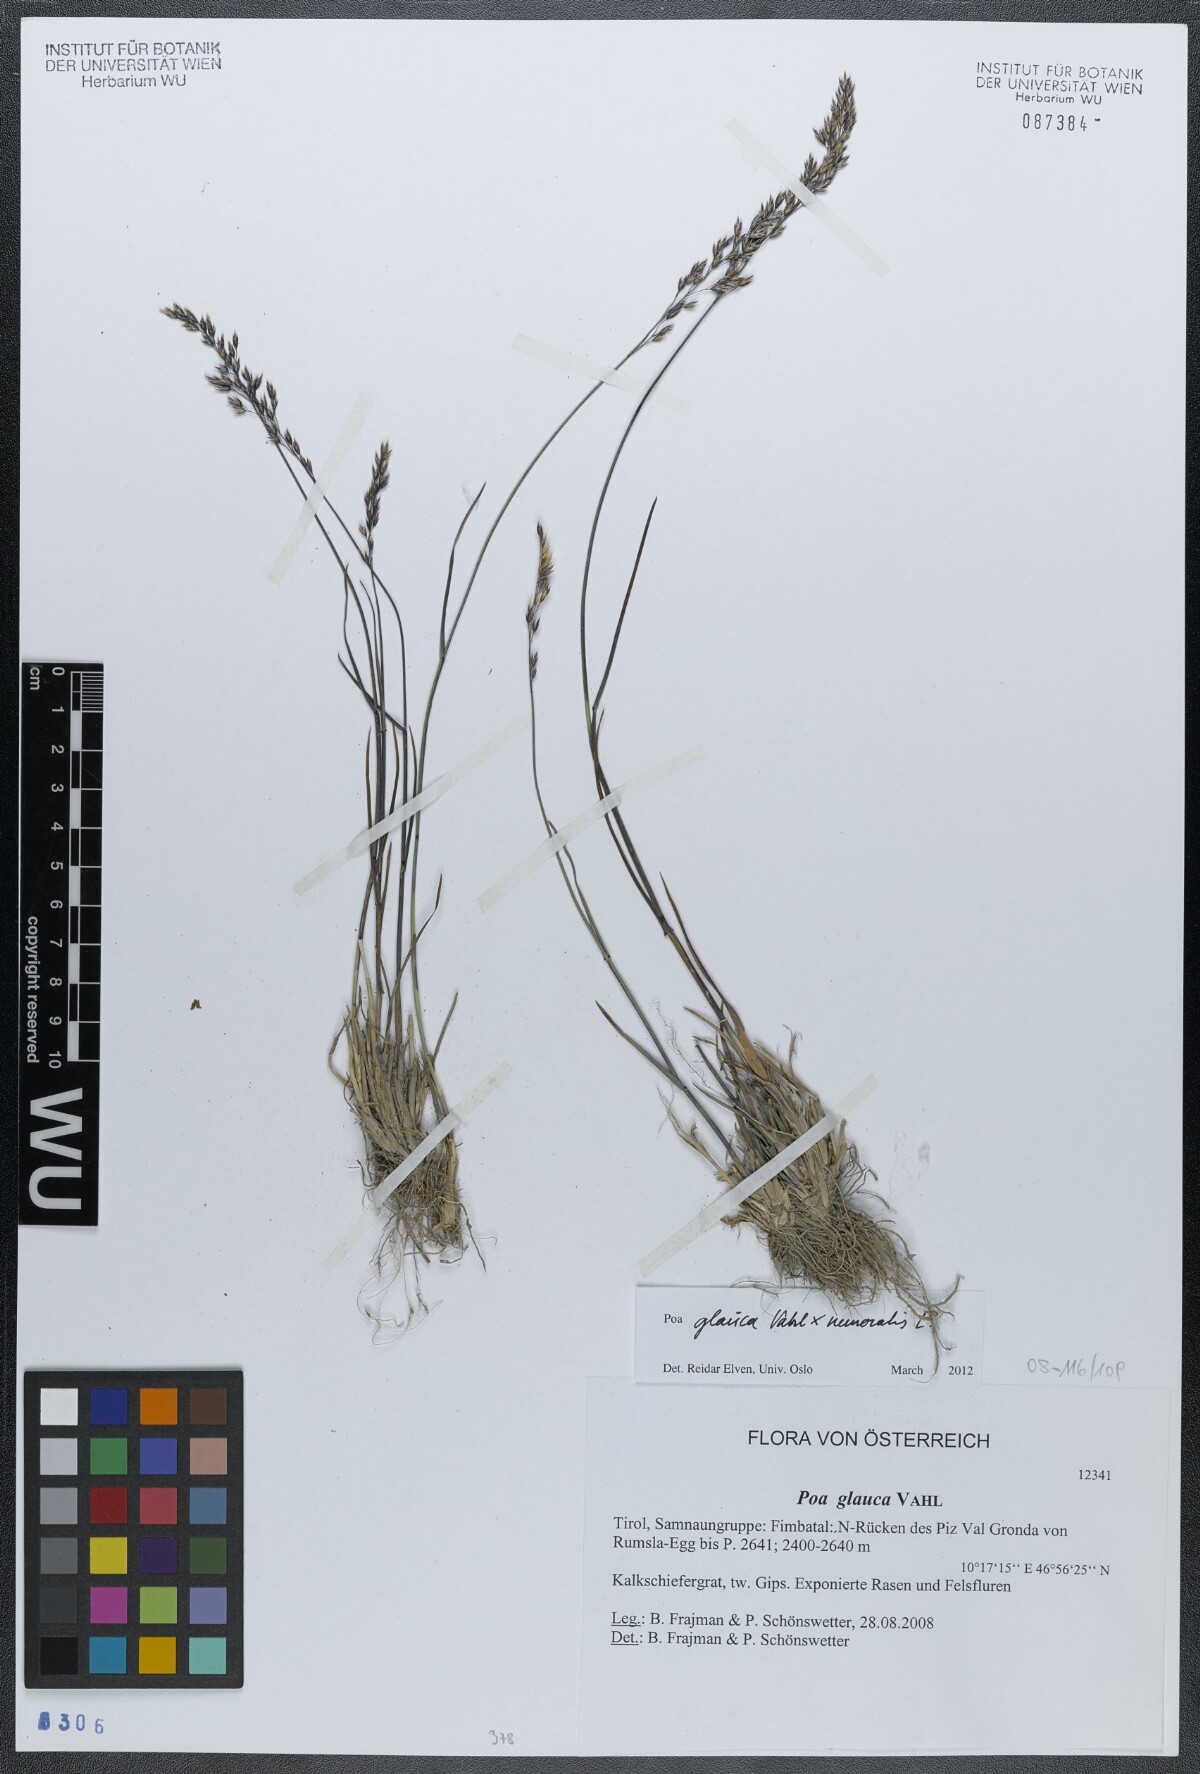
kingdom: Plantae
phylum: Tracheophyta
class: Liliopsida
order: Poales
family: Poaceae
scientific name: Poaceae
